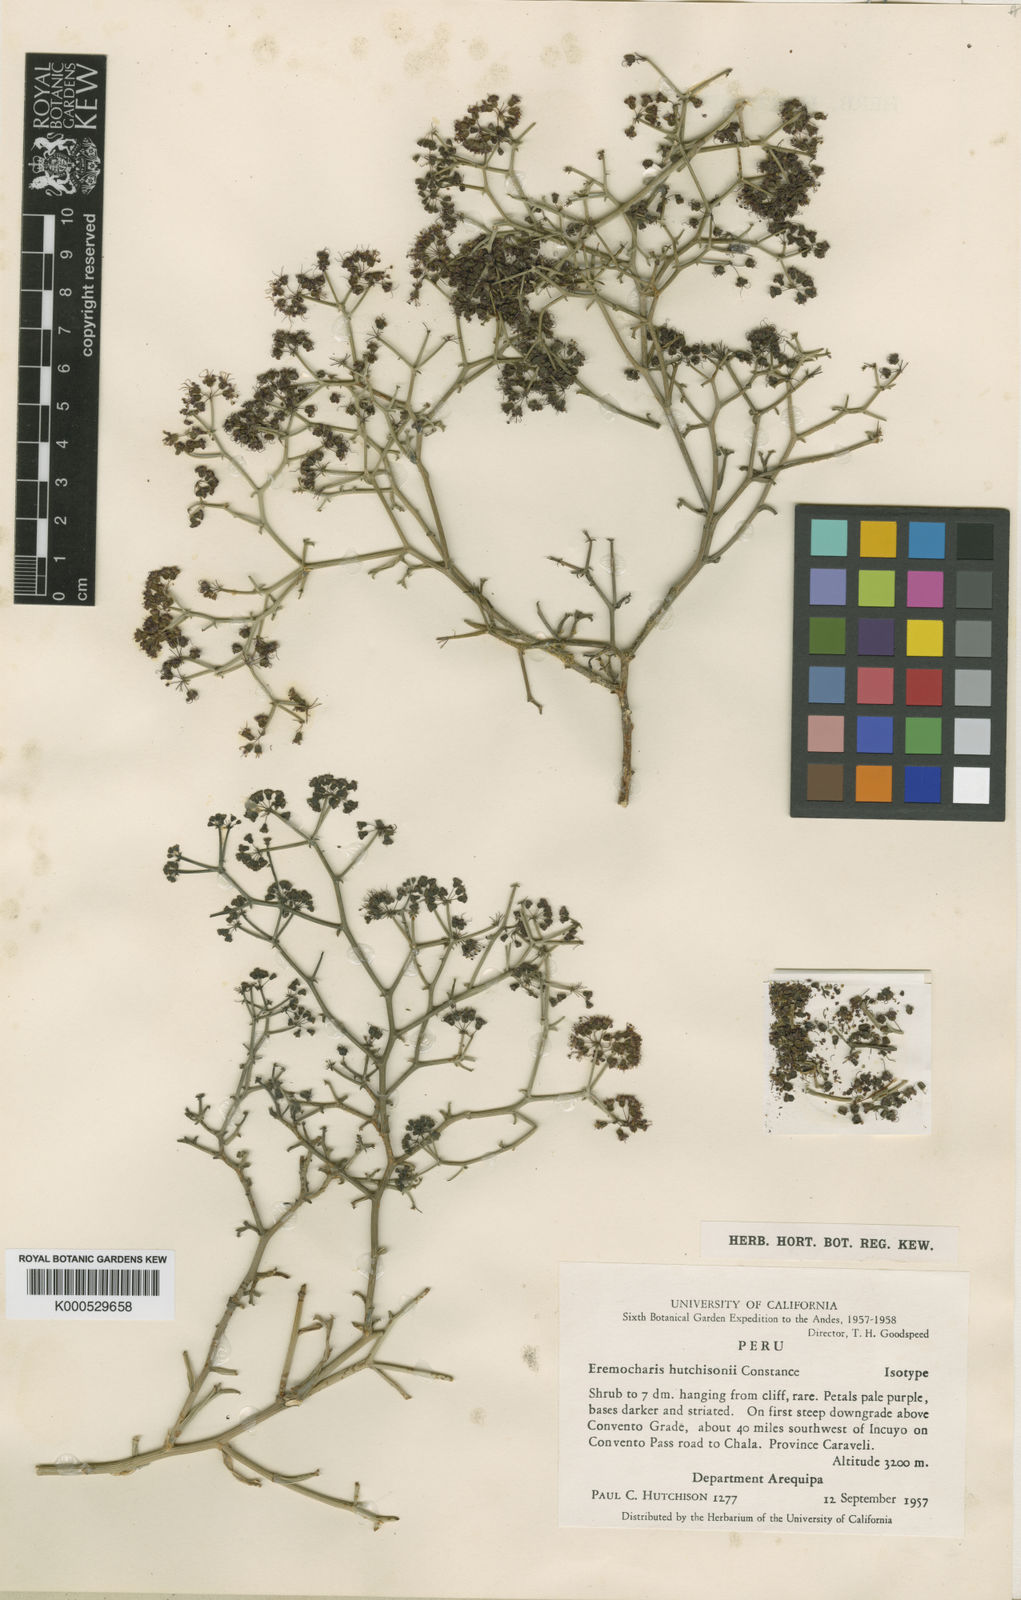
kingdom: Plantae
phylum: Tracheophyta
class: Magnoliopsida
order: Apiales
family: Apiaceae
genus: Eremocharis
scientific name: Eremocharis hutchisonii
